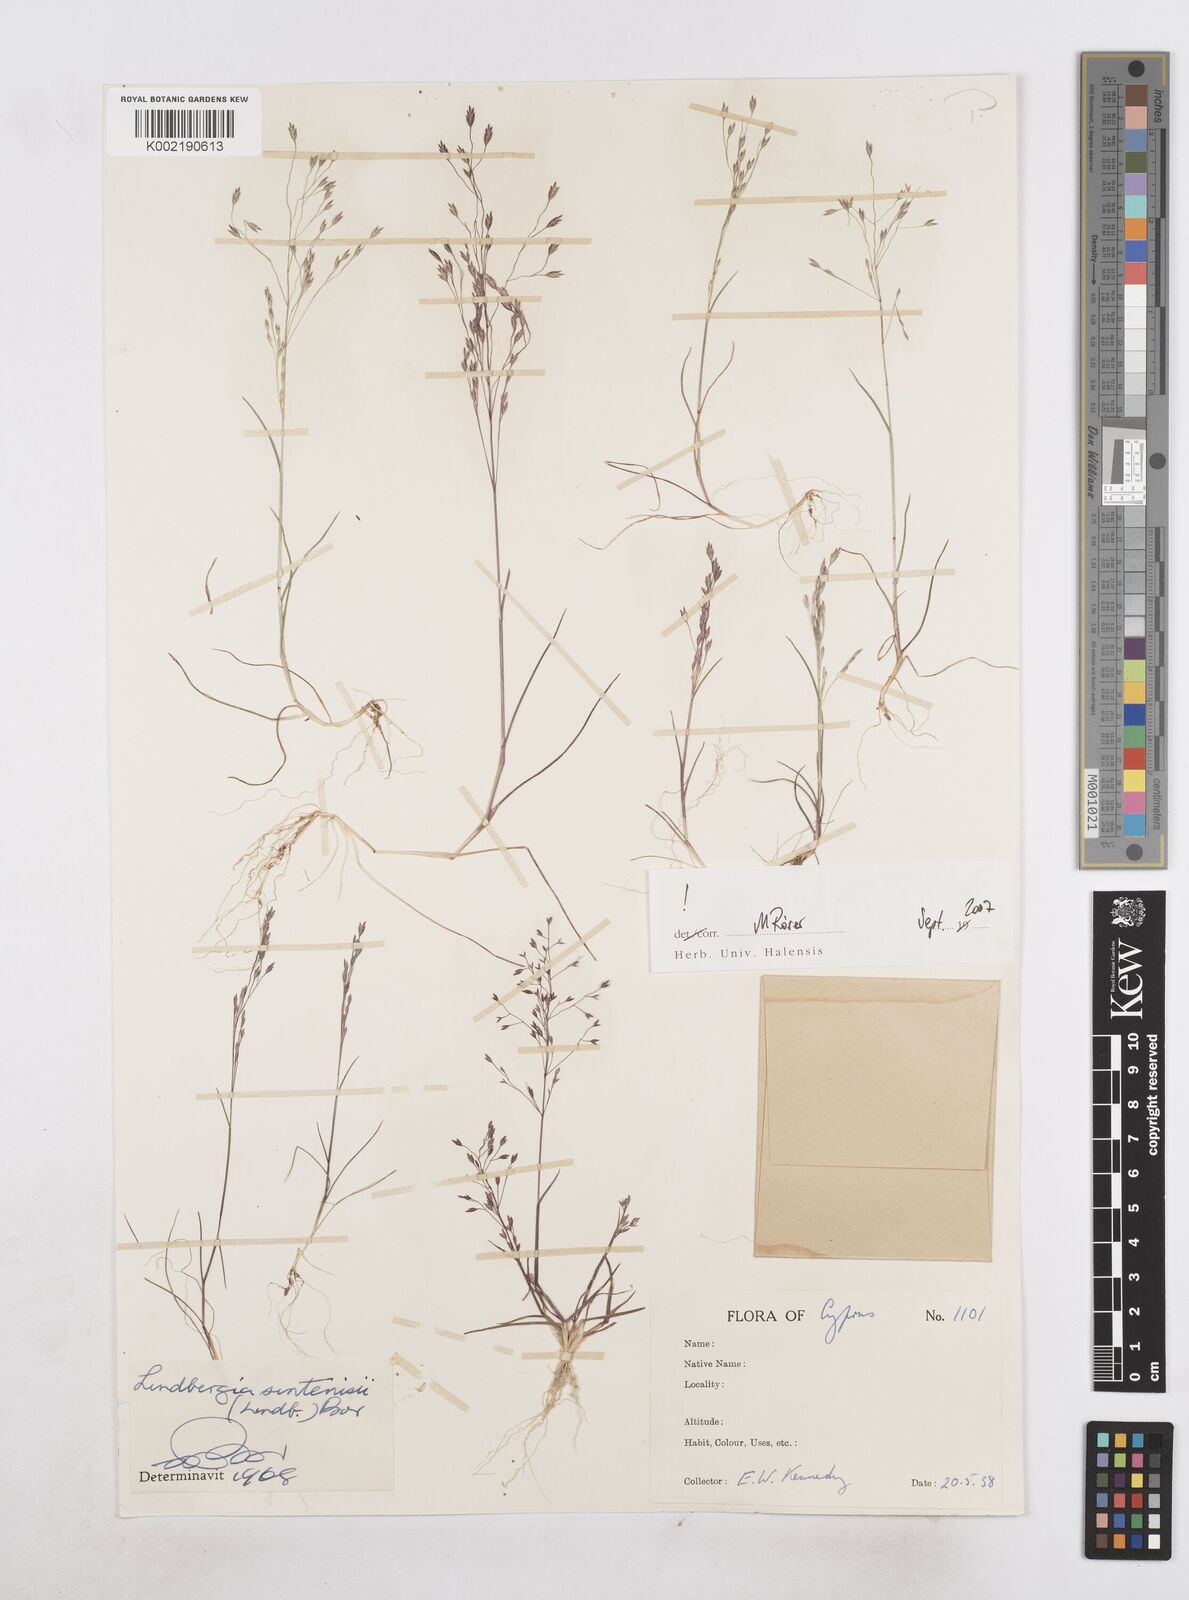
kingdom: Plantae
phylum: Tracheophyta
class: Liliopsida
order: Poales
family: Poaceae
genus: Poa
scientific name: Poa sintenisii
